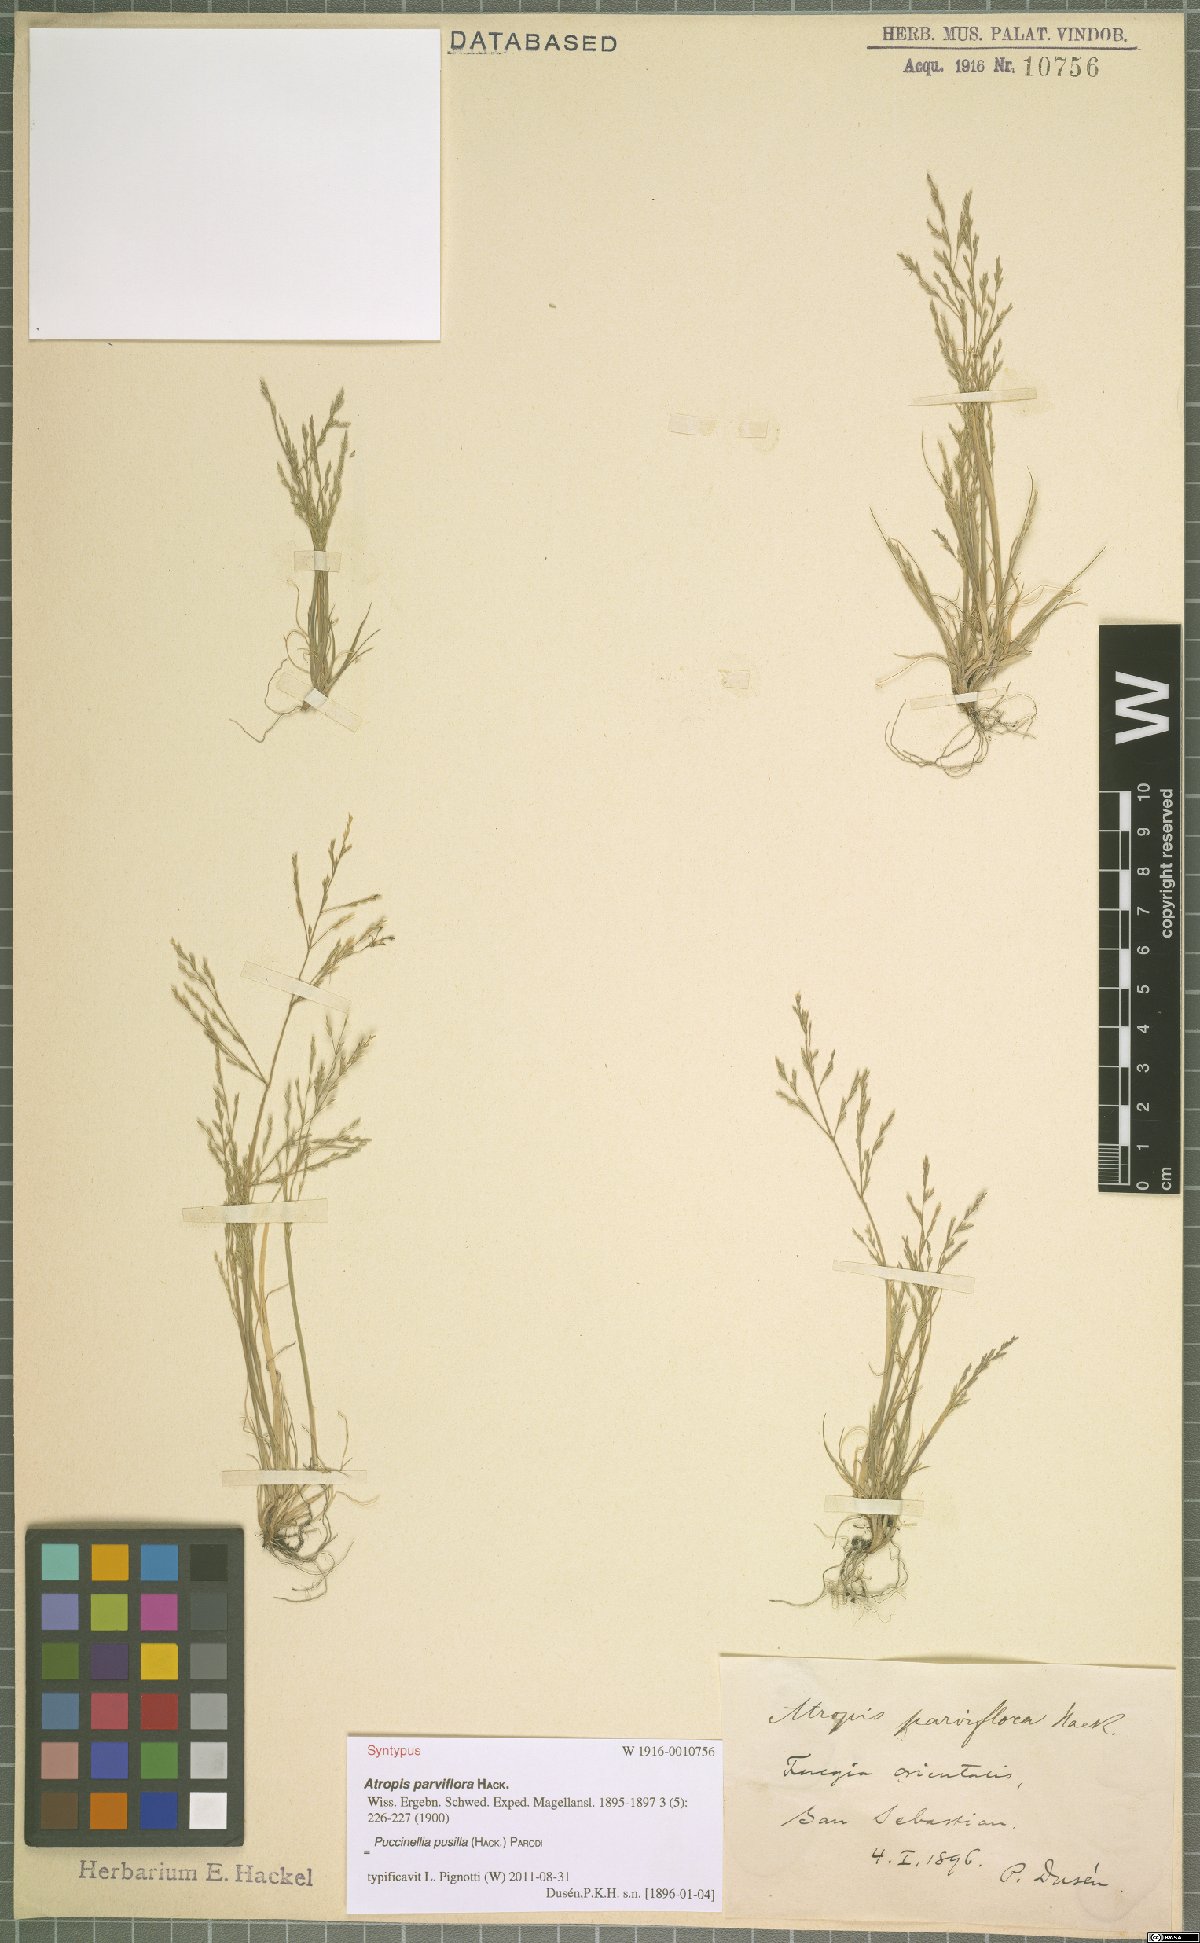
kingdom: Plantae
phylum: Tracheophyta
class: Liliopsida
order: Poales
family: Poaceae
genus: Puccinellia
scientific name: Puccinellia pusilla
